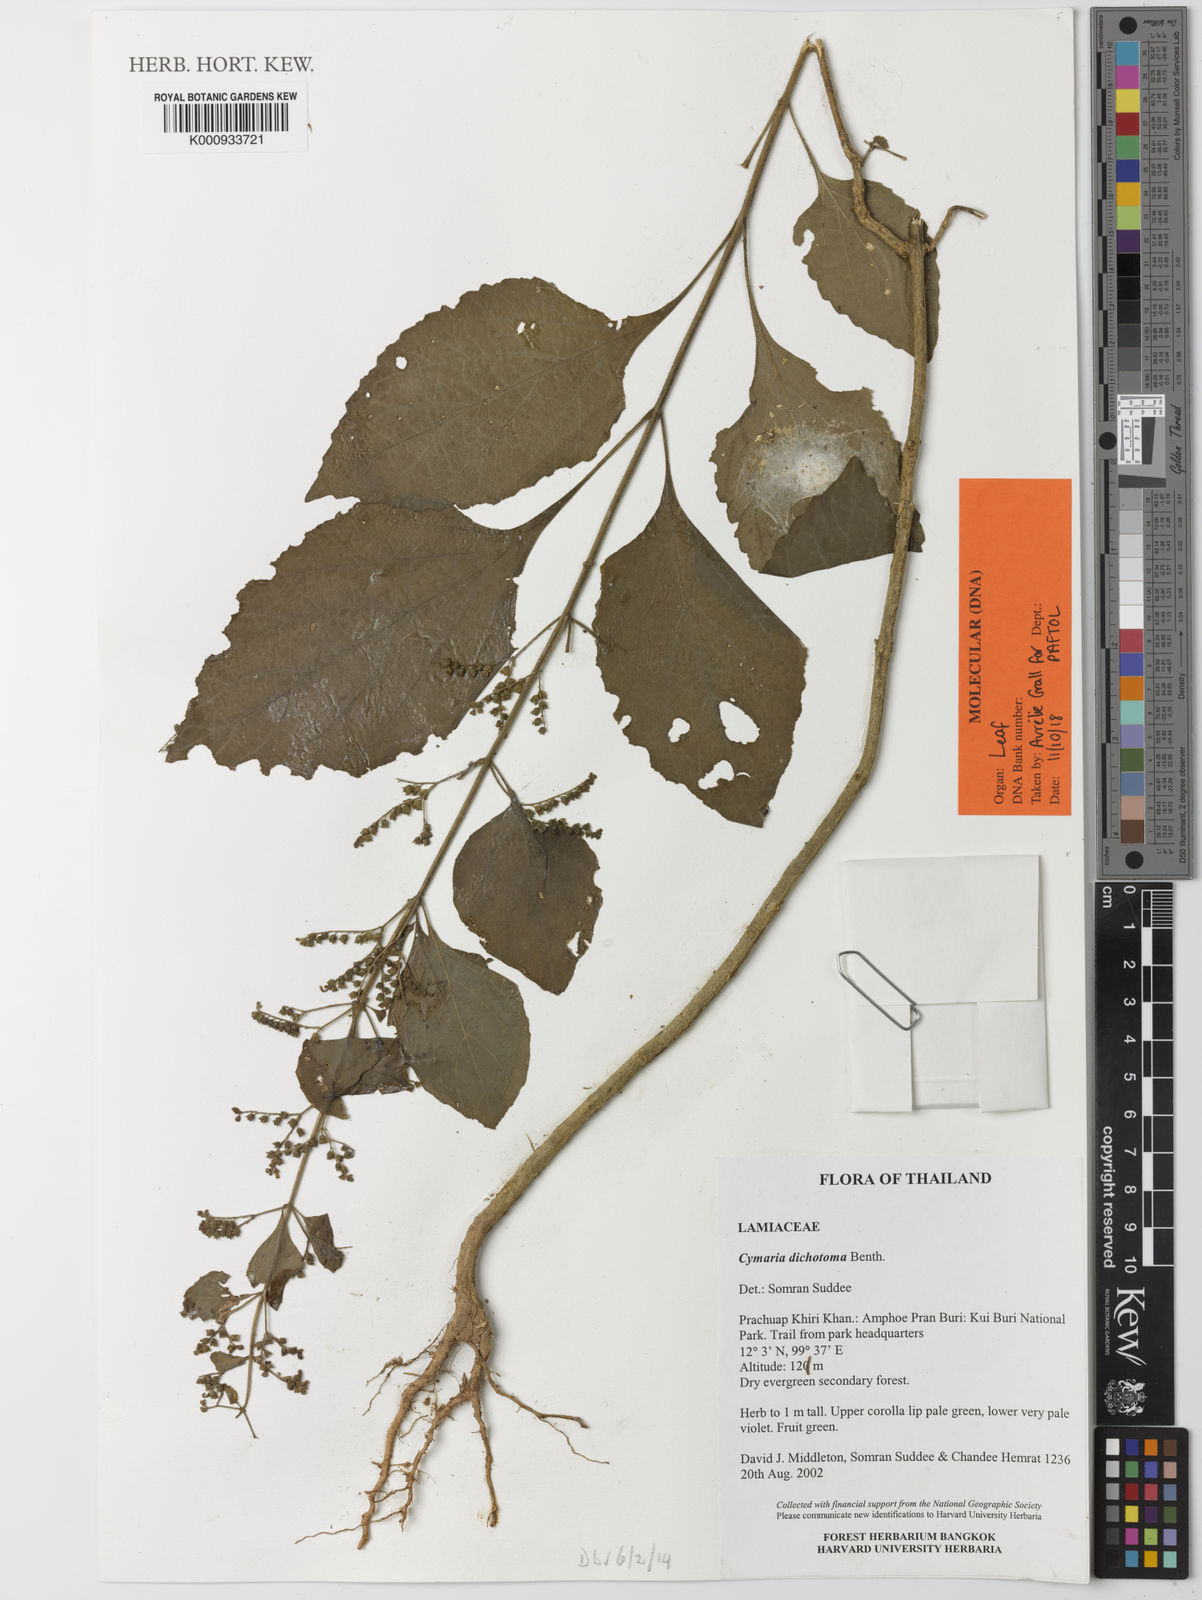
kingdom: Plantae
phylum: Tracheophyta
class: Magnoliopsida
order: Lamiales
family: Lamiaceae
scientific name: Lamiaceae
